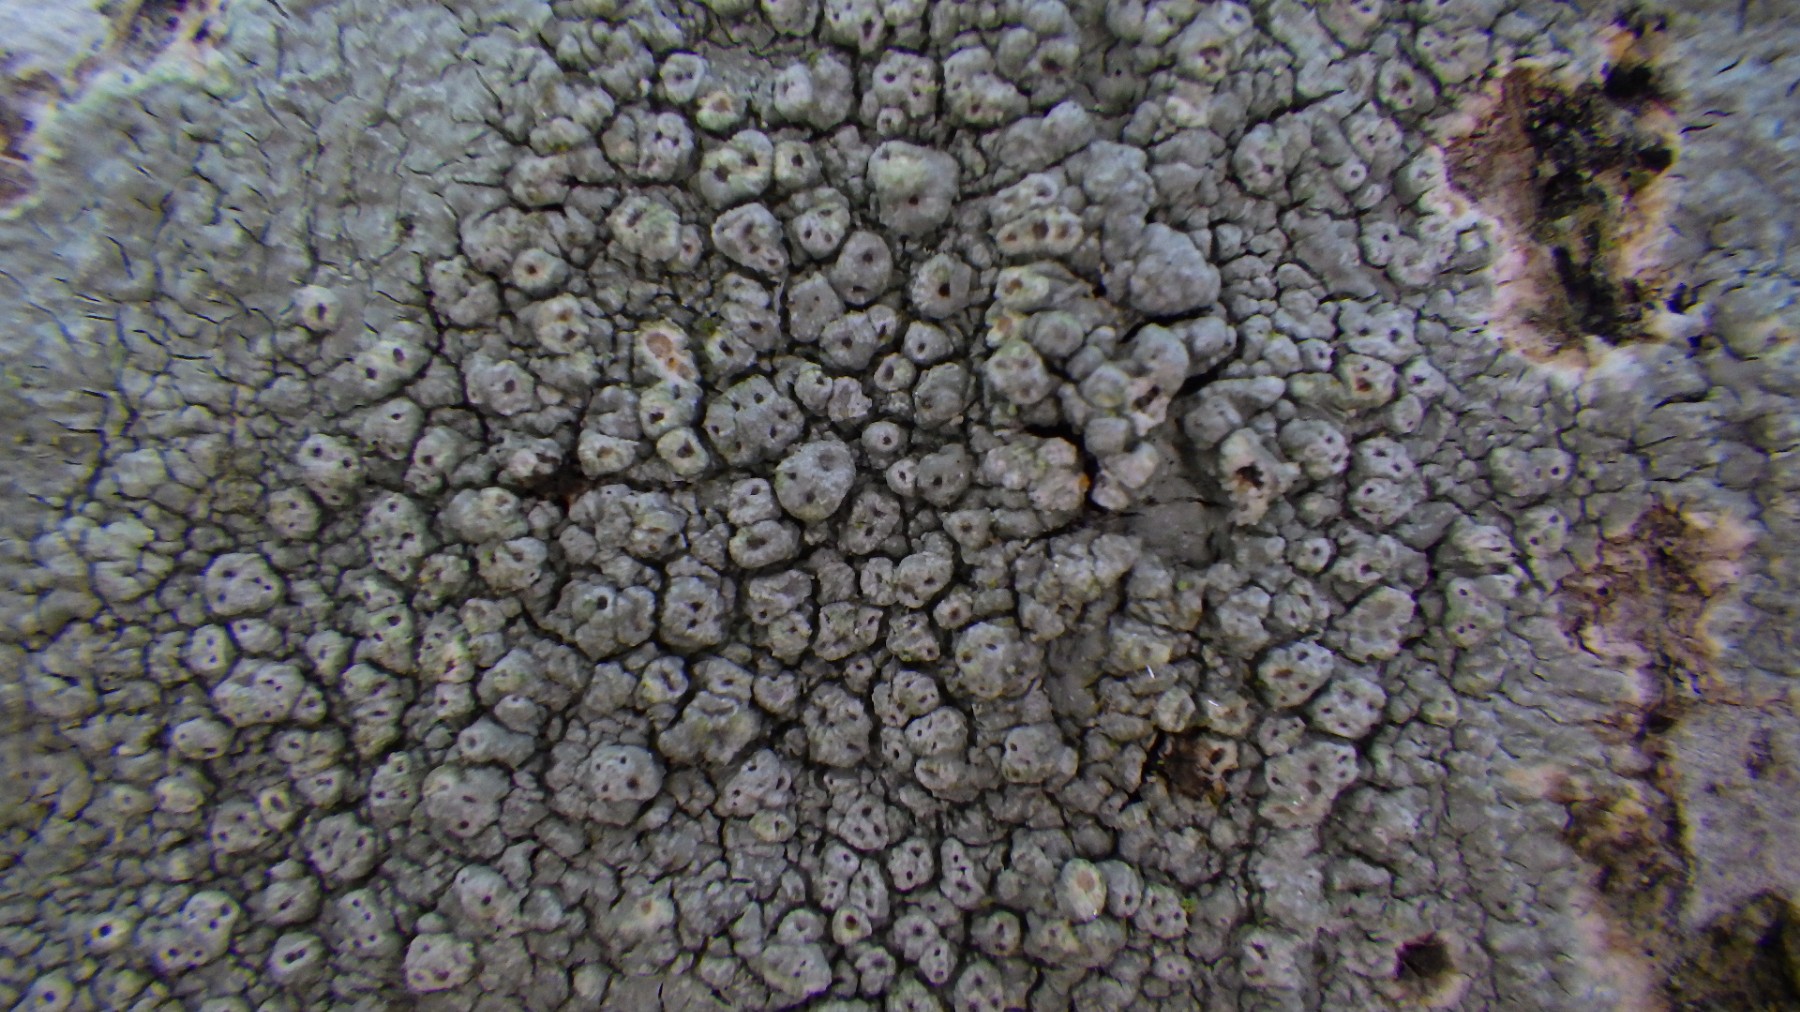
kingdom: Fungi
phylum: Ascomycota
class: Lecanoromycetes
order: Pertusariales
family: Pertusariaceae
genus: Pertusaria
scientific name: Pertusaria pertusa
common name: almindelig prikvortelav
